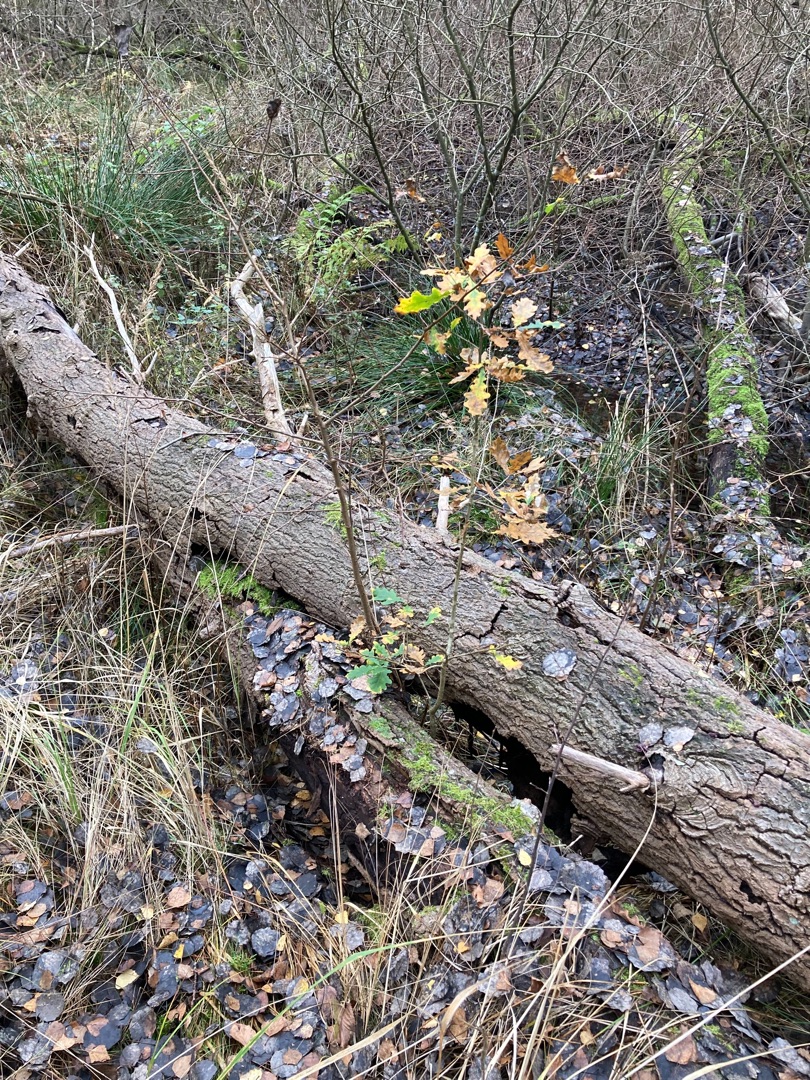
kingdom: Plantae
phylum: Tracheophyta
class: Magnoliopsida
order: Fagales
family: Fagaceae
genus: Quercus
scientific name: Quercus robur
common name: Stilk-eg/almindelig eg
